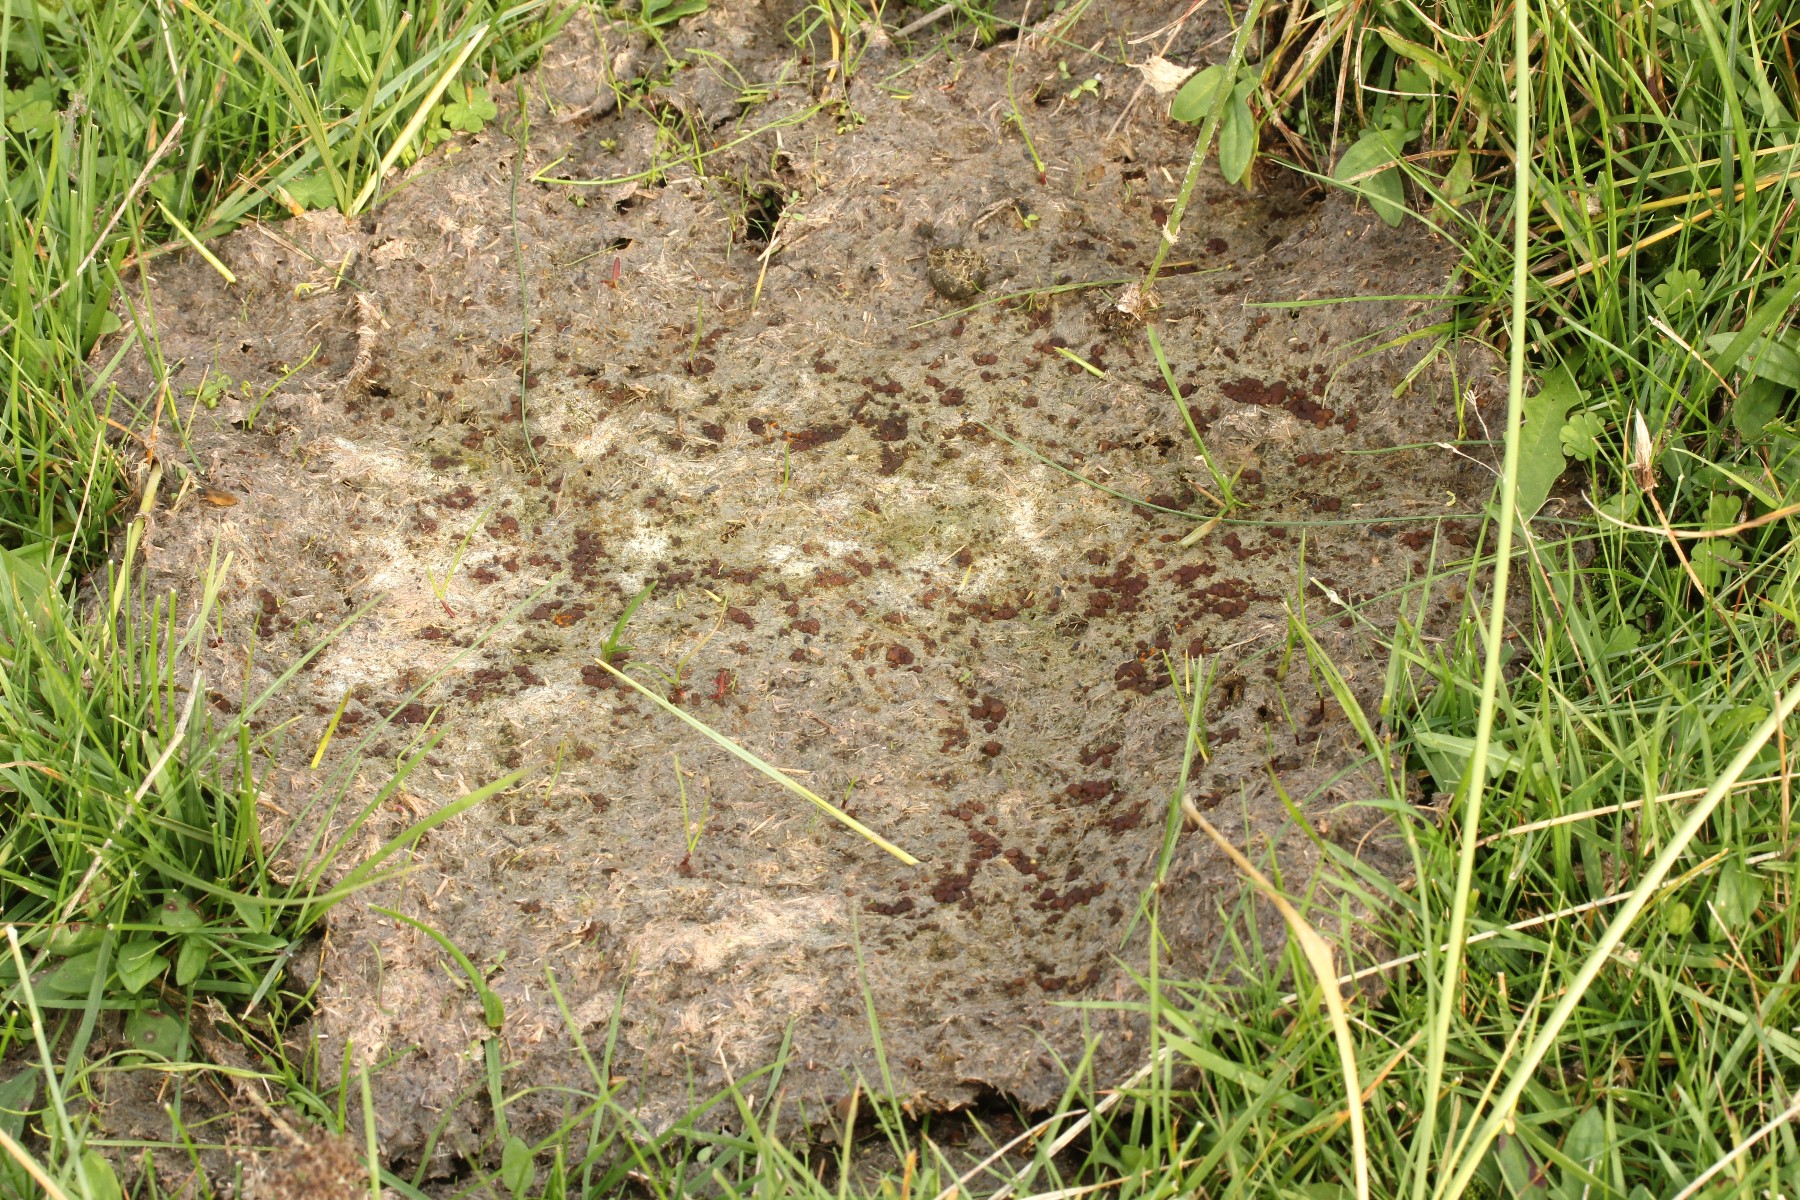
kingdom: Fungi
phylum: Ascomycota
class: Pezizomycetes
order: Pezizales
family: Pyronemataceae
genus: Pseudombrophila
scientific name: Pseudombrophila
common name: randbæger
